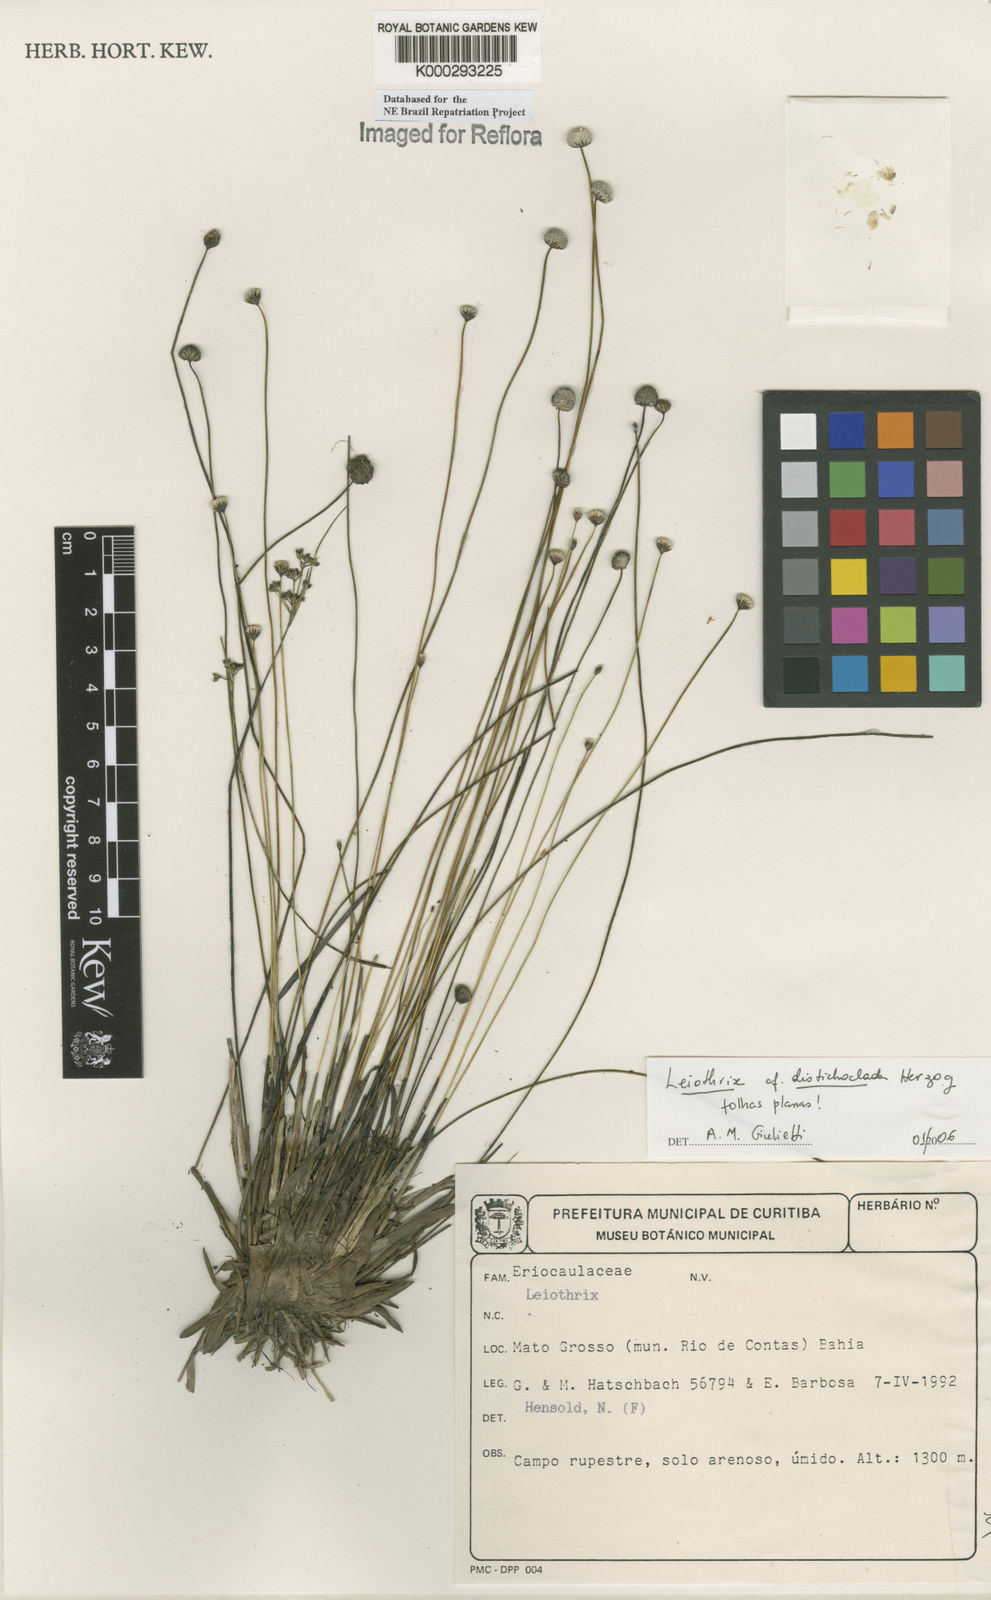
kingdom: Plantae
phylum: Tracheophyta
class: Liliopsida
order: Poales
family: Eriocaulaceae
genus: Leiothrix
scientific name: Leiothrix
